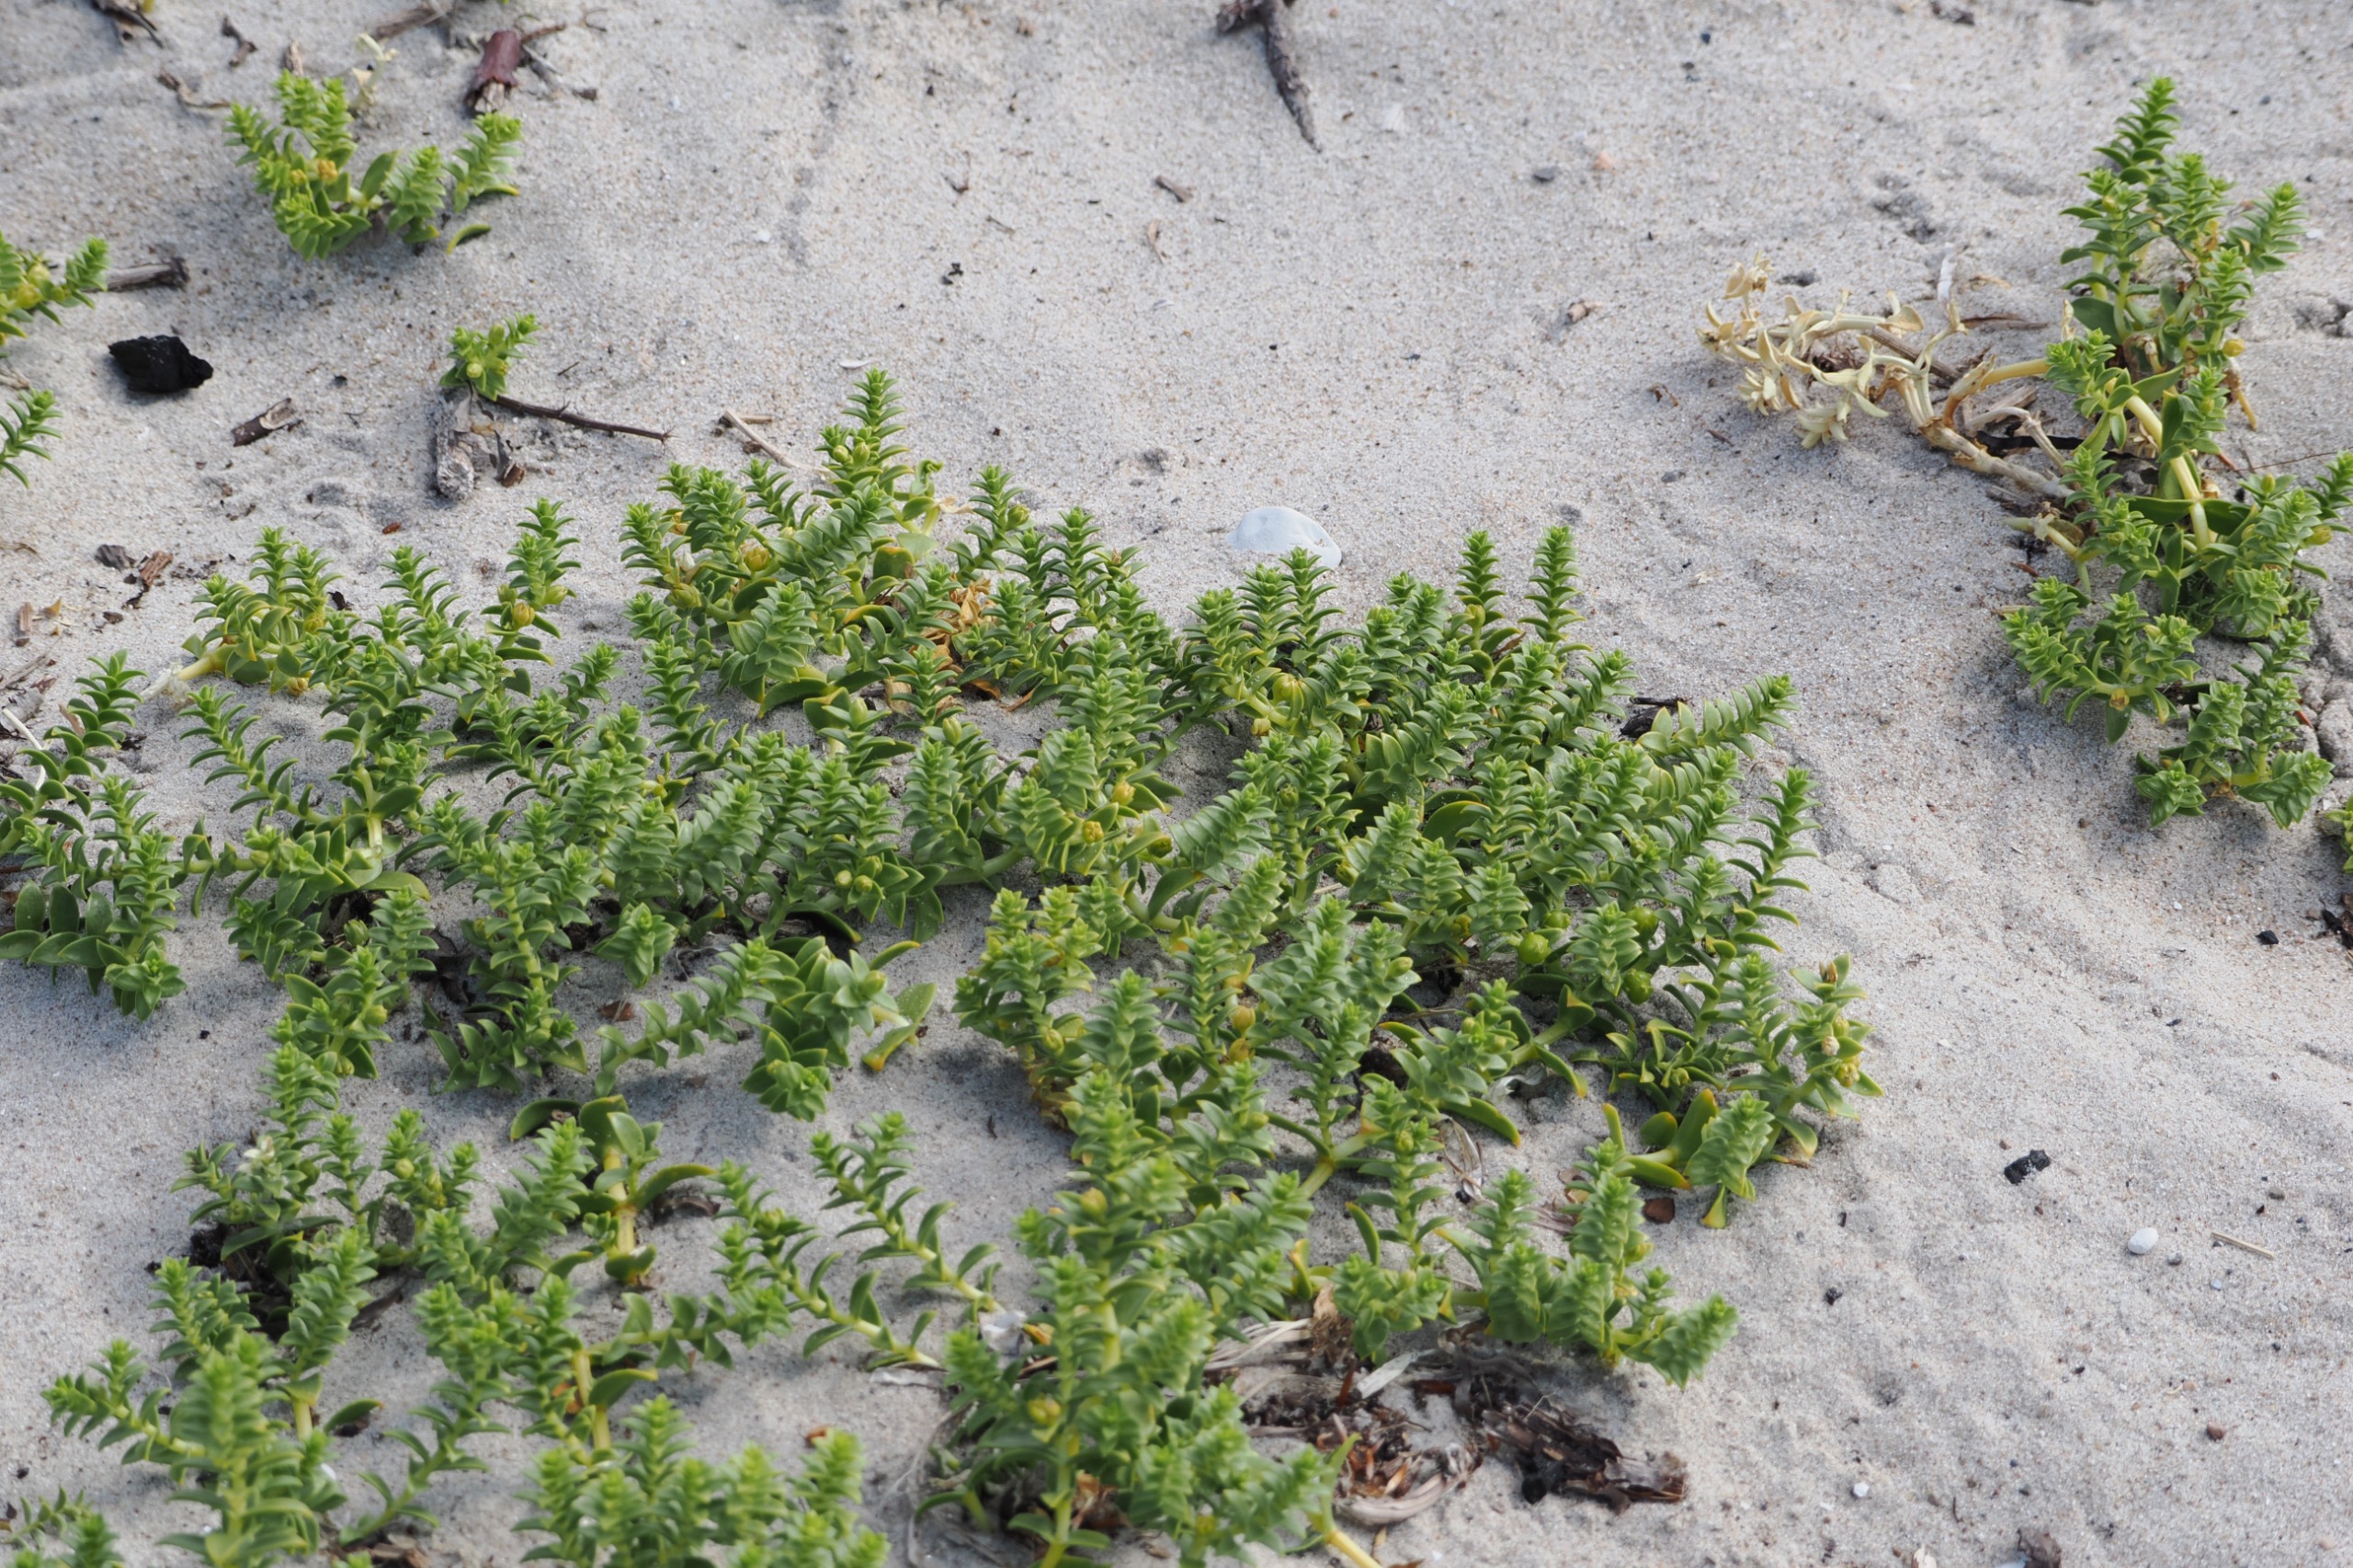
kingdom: Plantae
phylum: Tracheophyta
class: Magnoliopsida
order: Caryophyllales
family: Caryophyllaceae
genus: Honckenya
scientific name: Honckenya peploides
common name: Strandarve
